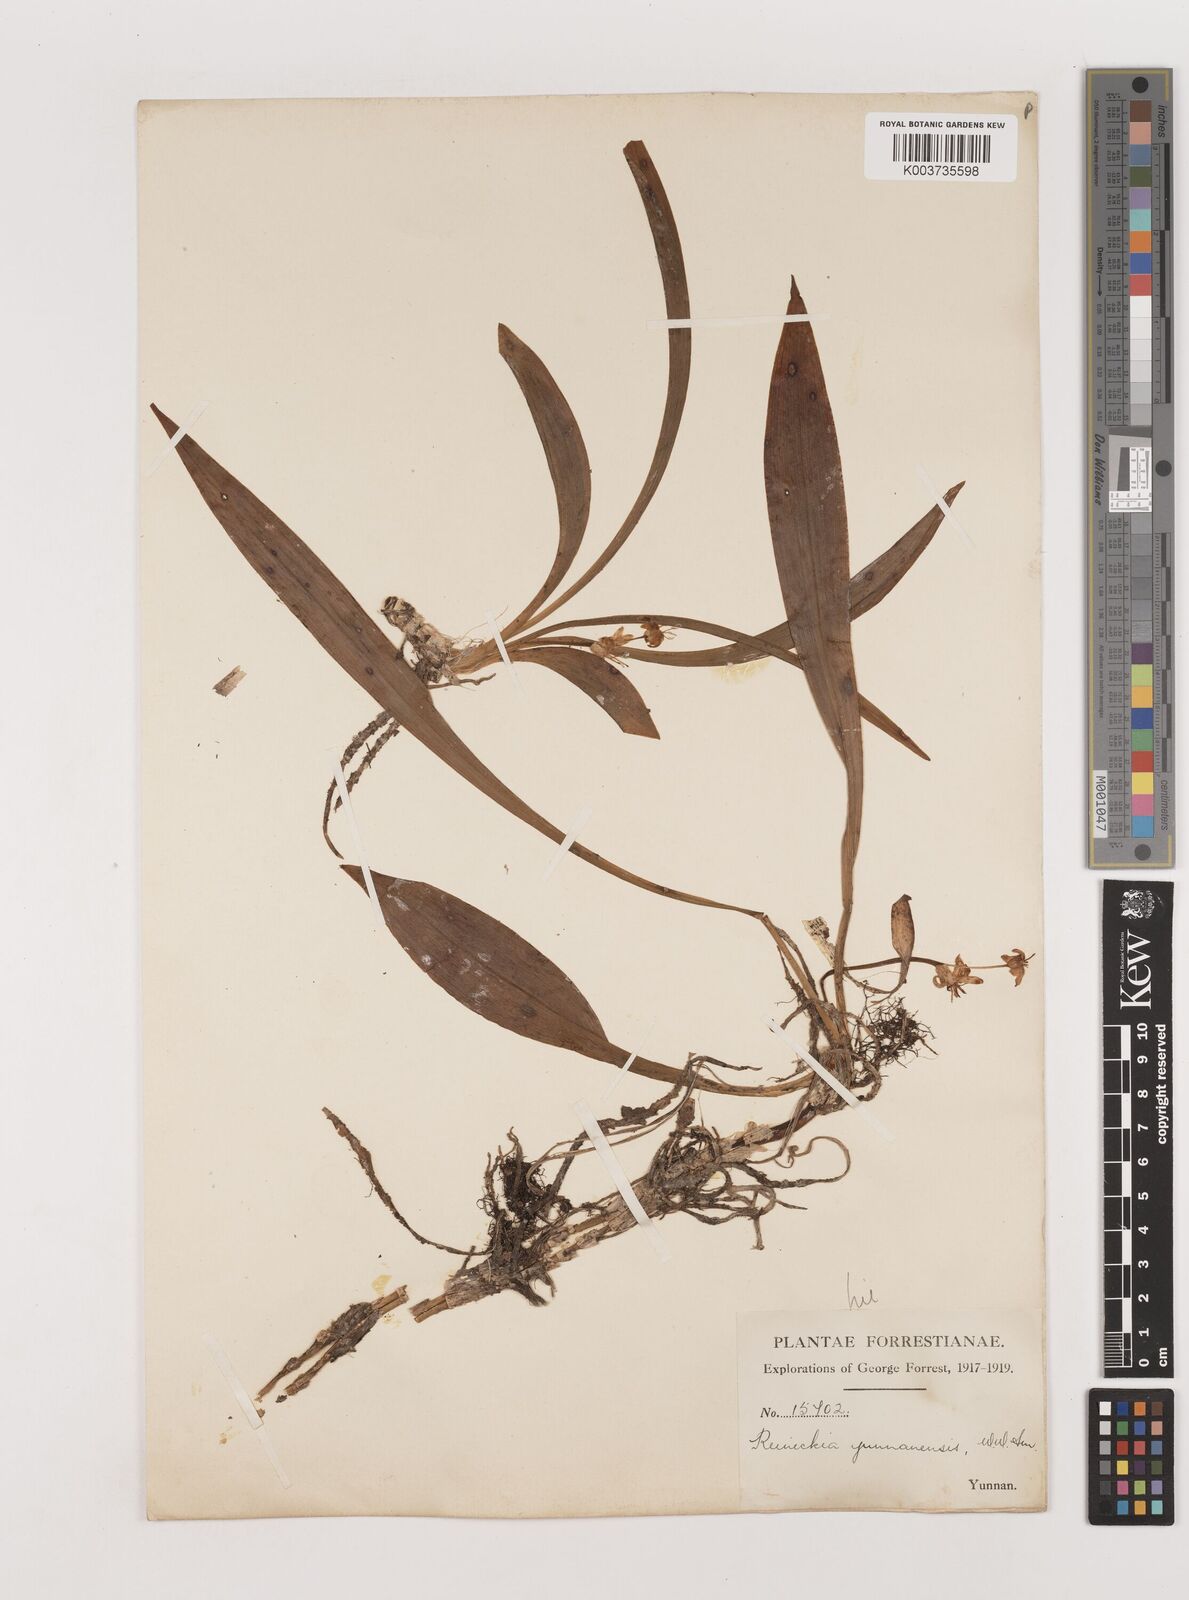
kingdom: Plantae
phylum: Tracheophyta
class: Liliopsida
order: Asparagales
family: Asparagaceae
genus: Reineckea
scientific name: Reineckea carnea
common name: Reineckea
